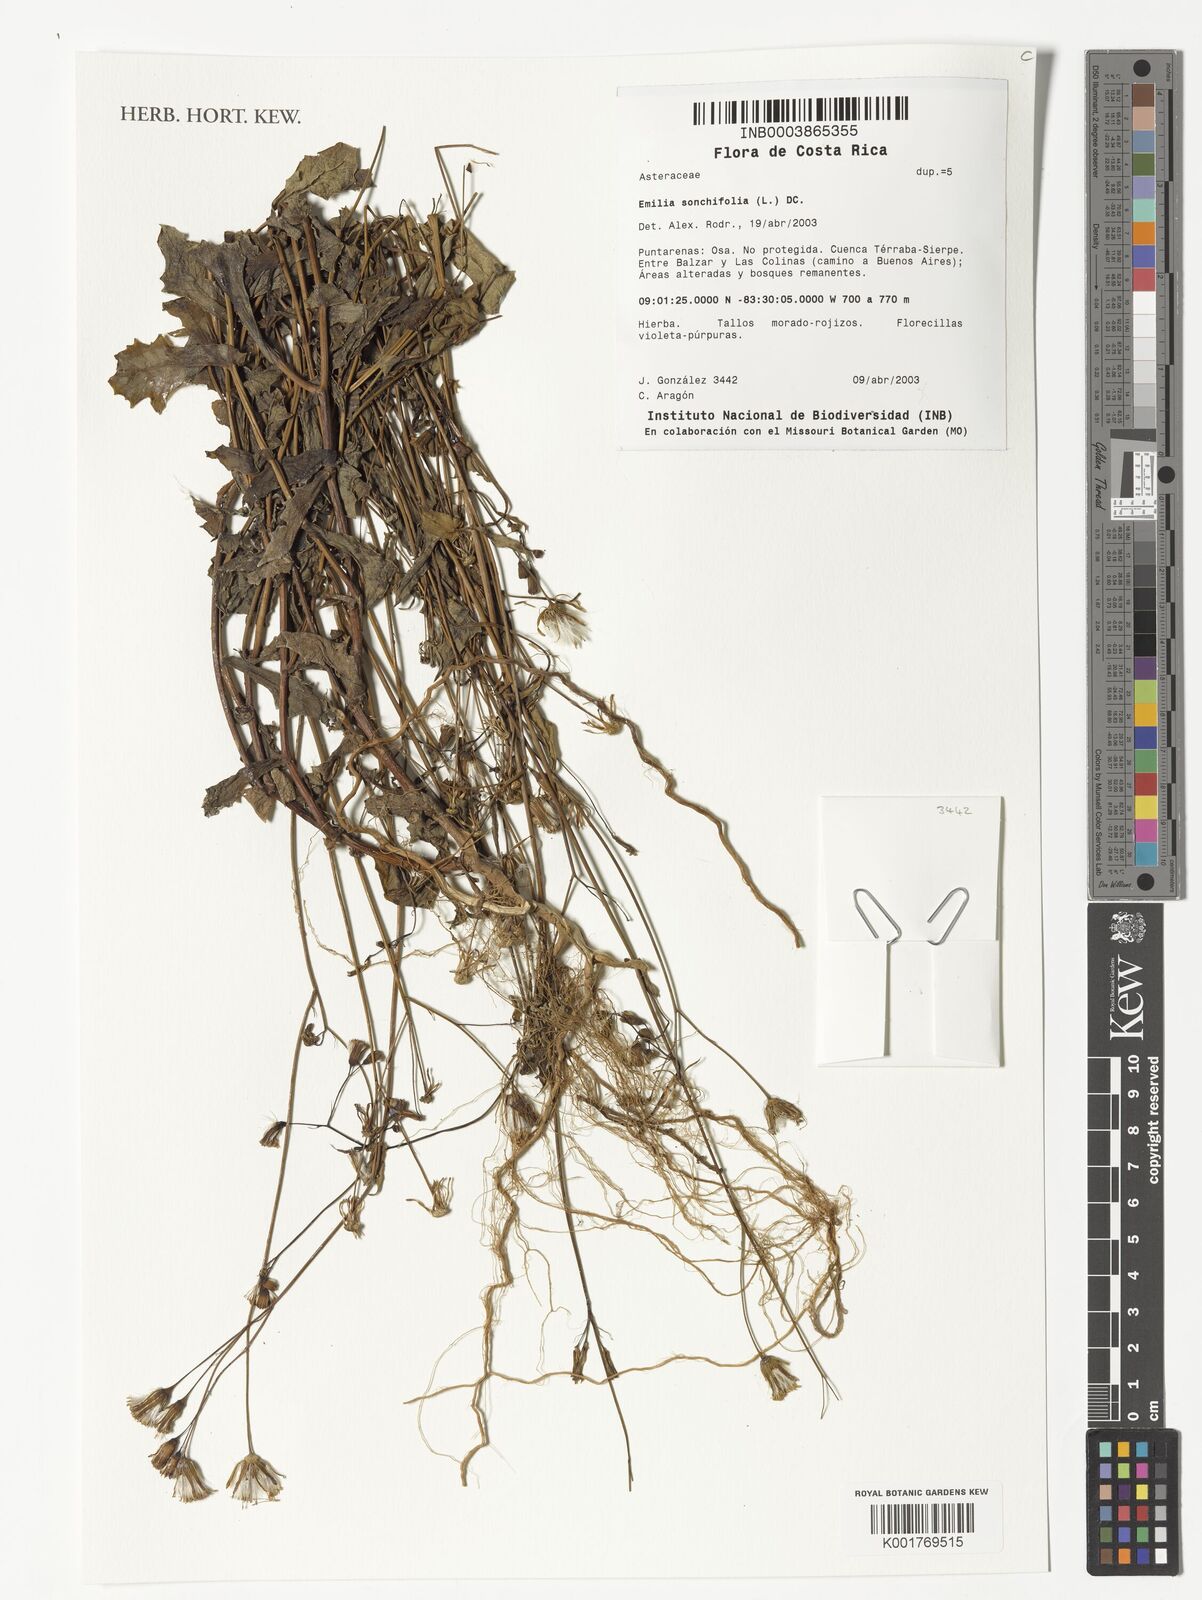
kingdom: Plantae
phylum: Tracheophyta
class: Magnoliopsida
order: Asterales
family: Asteraceae
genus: Emilia
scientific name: Emilia sonchifolia
